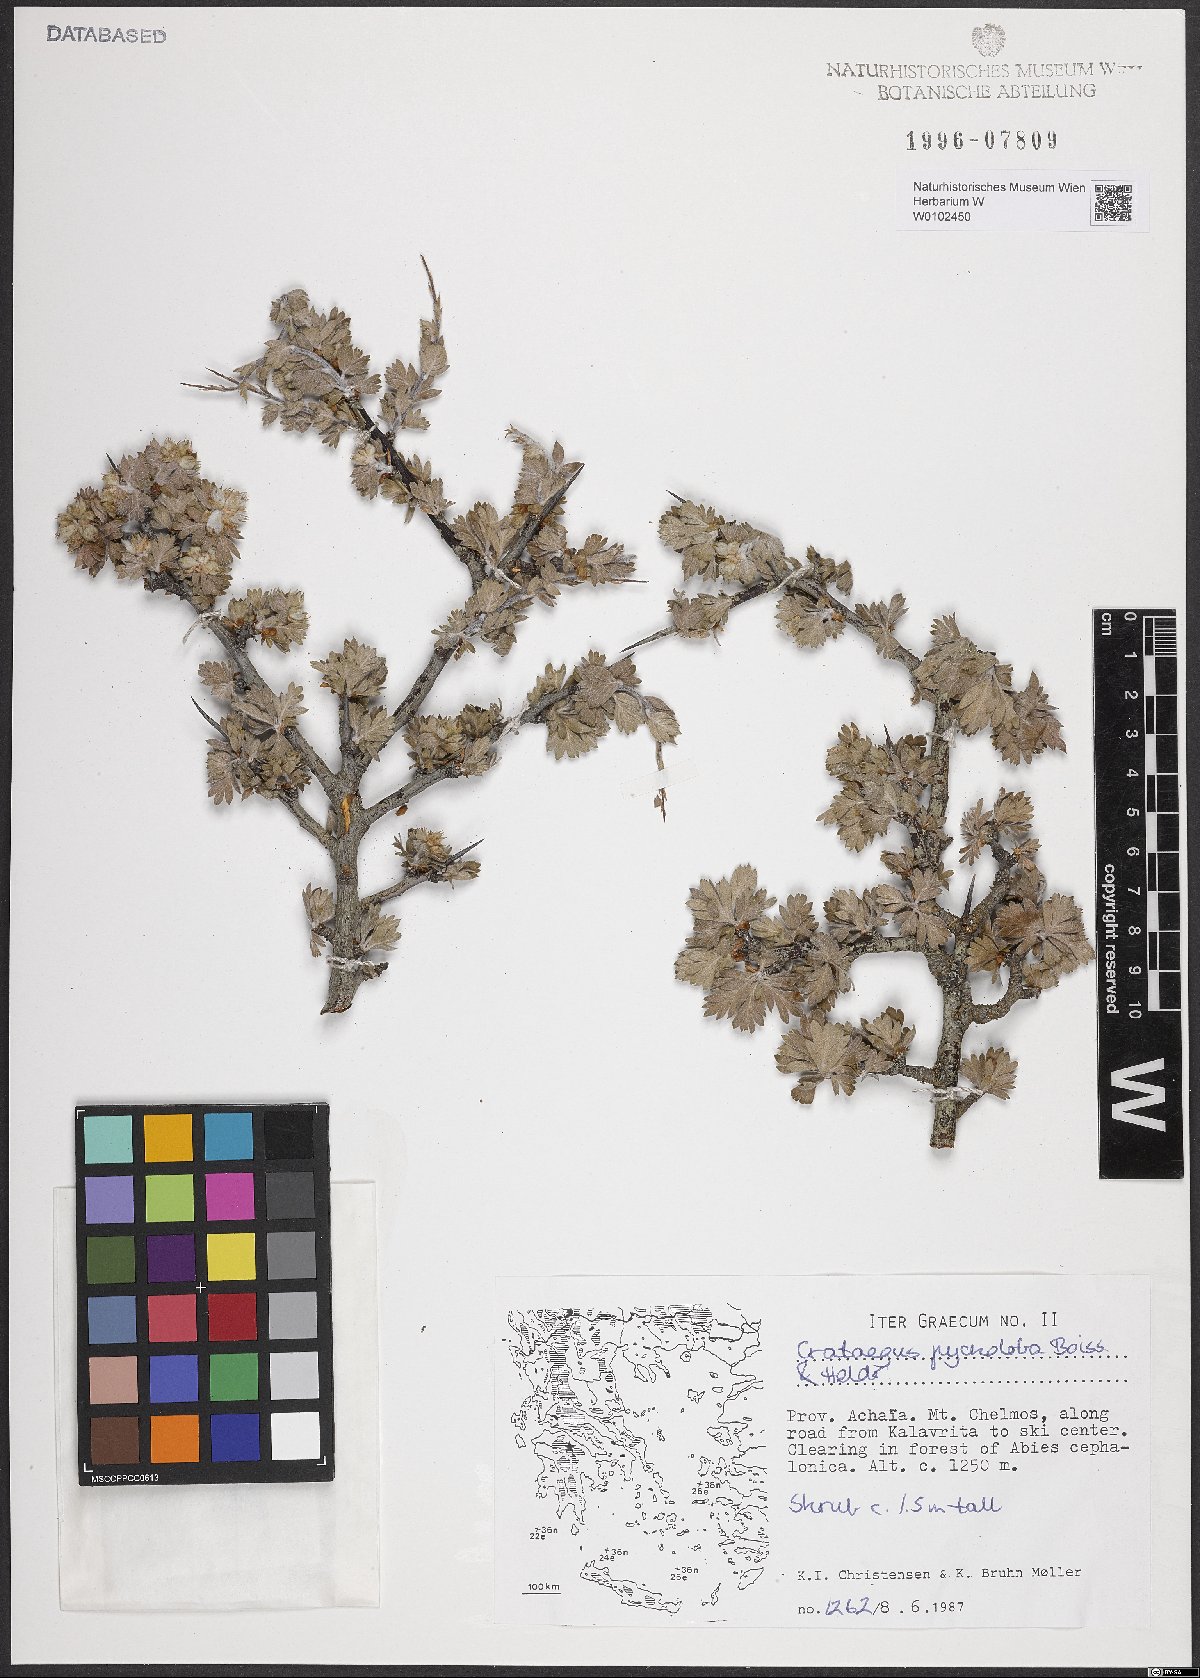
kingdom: Plantae
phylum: Tracheophyta
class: Magnoliopsida
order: Rosales
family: Rosaceae
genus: Crataegus
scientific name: Crataegus pycnoloba
